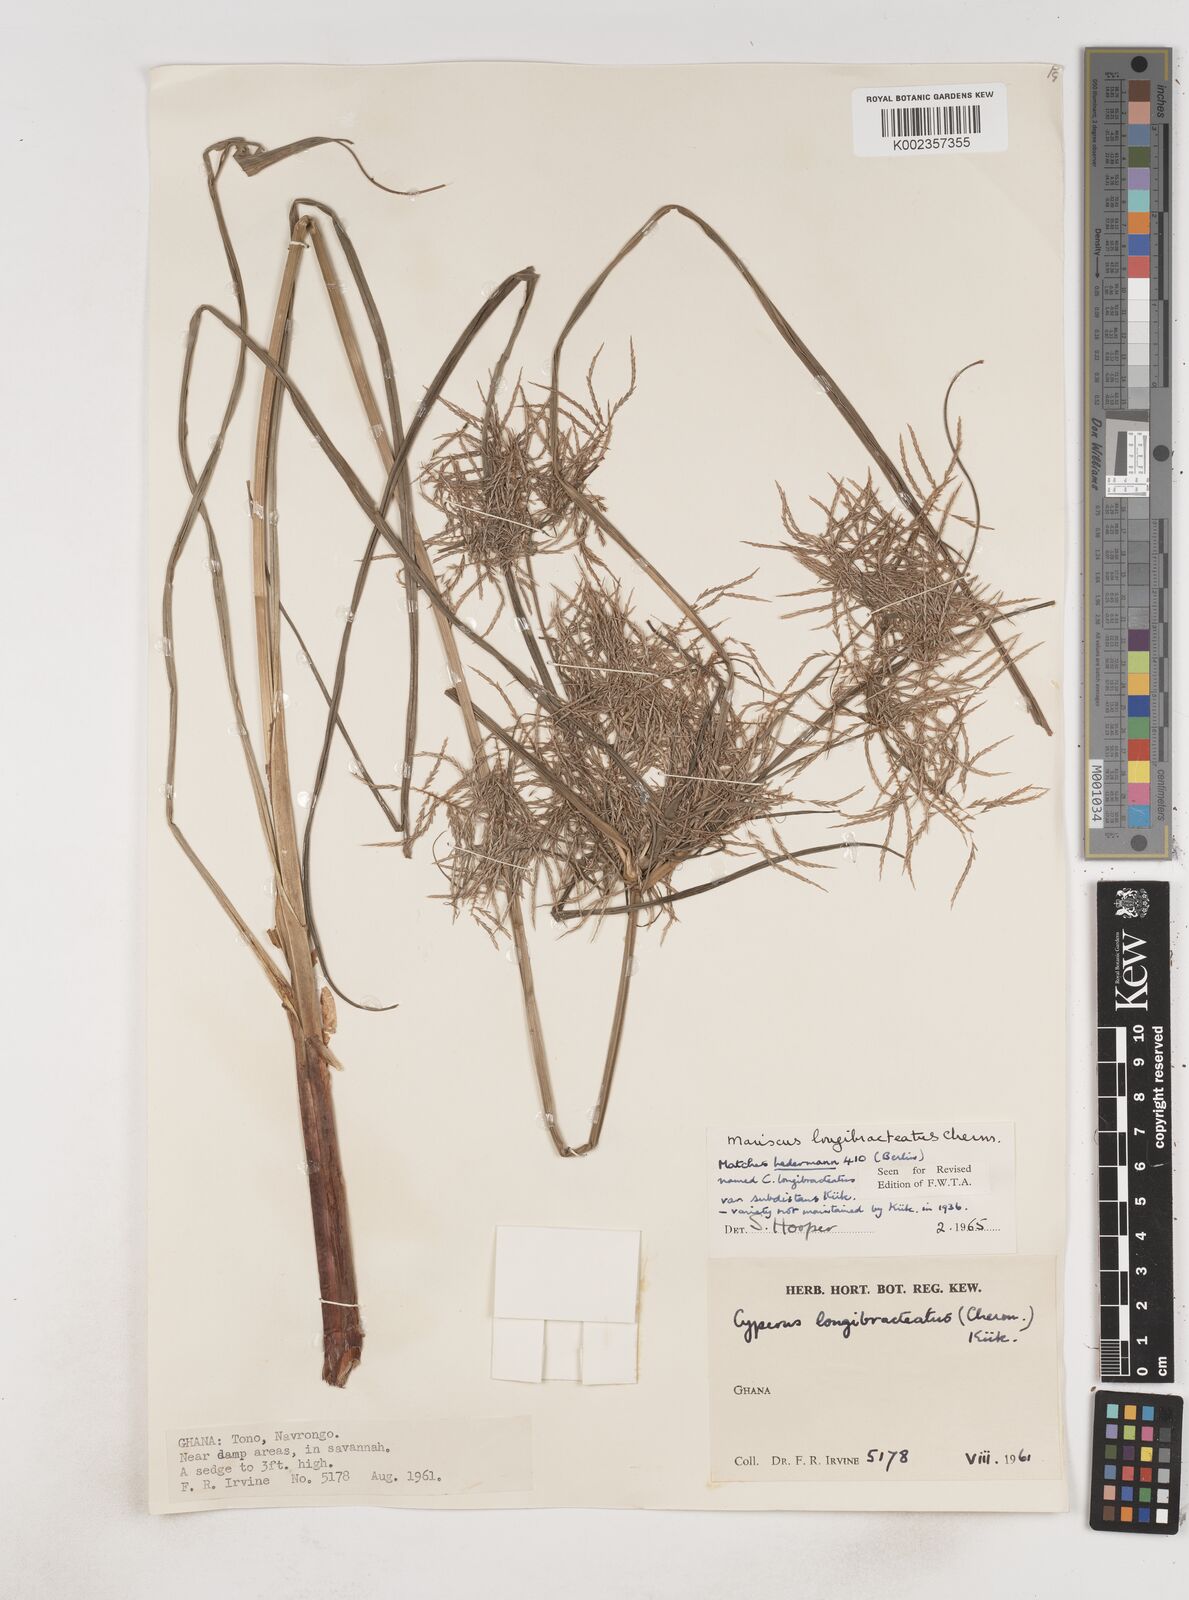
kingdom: Plantae
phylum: Tracheophyta
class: Liliopsida
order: Poales
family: Cyperaceae
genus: Cyperus
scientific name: Cyperus distans
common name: Slender cyperus
